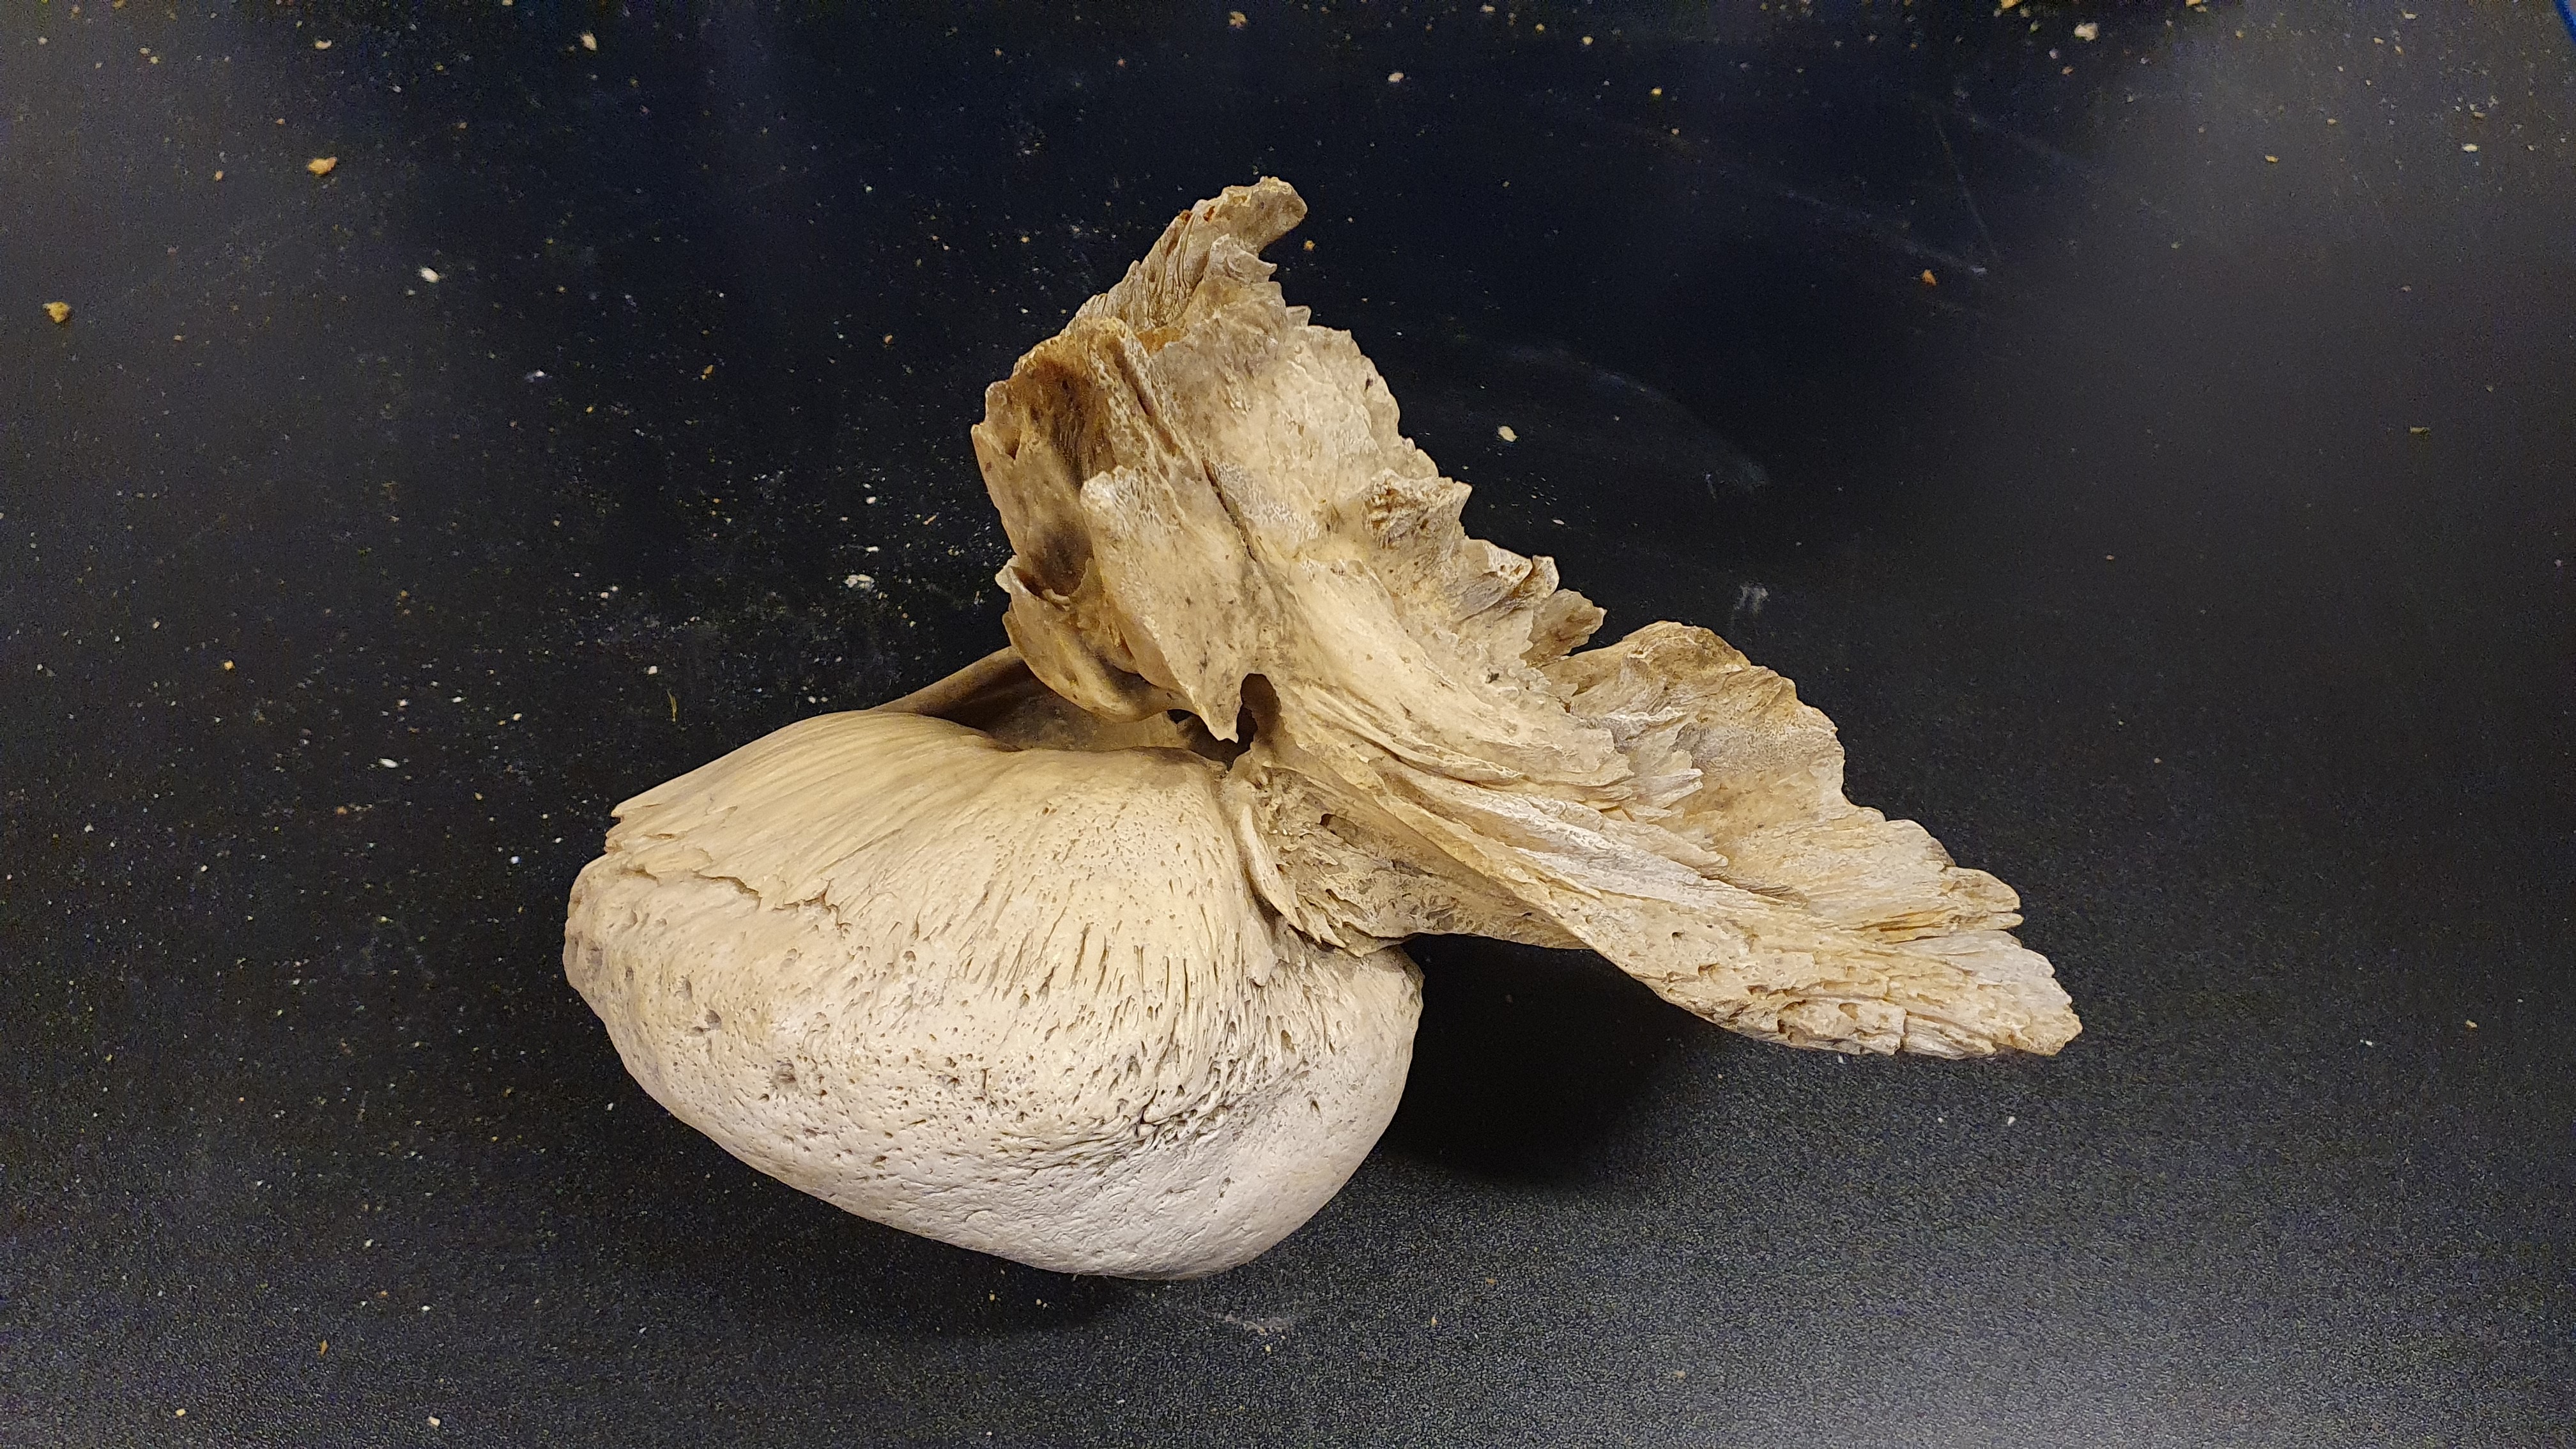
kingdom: Animalia
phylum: Chordata
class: Mammalia
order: Cetacea
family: Balaenidae
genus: Eubalaena
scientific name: Eubalaena glacialis
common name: North atlantic right whale
